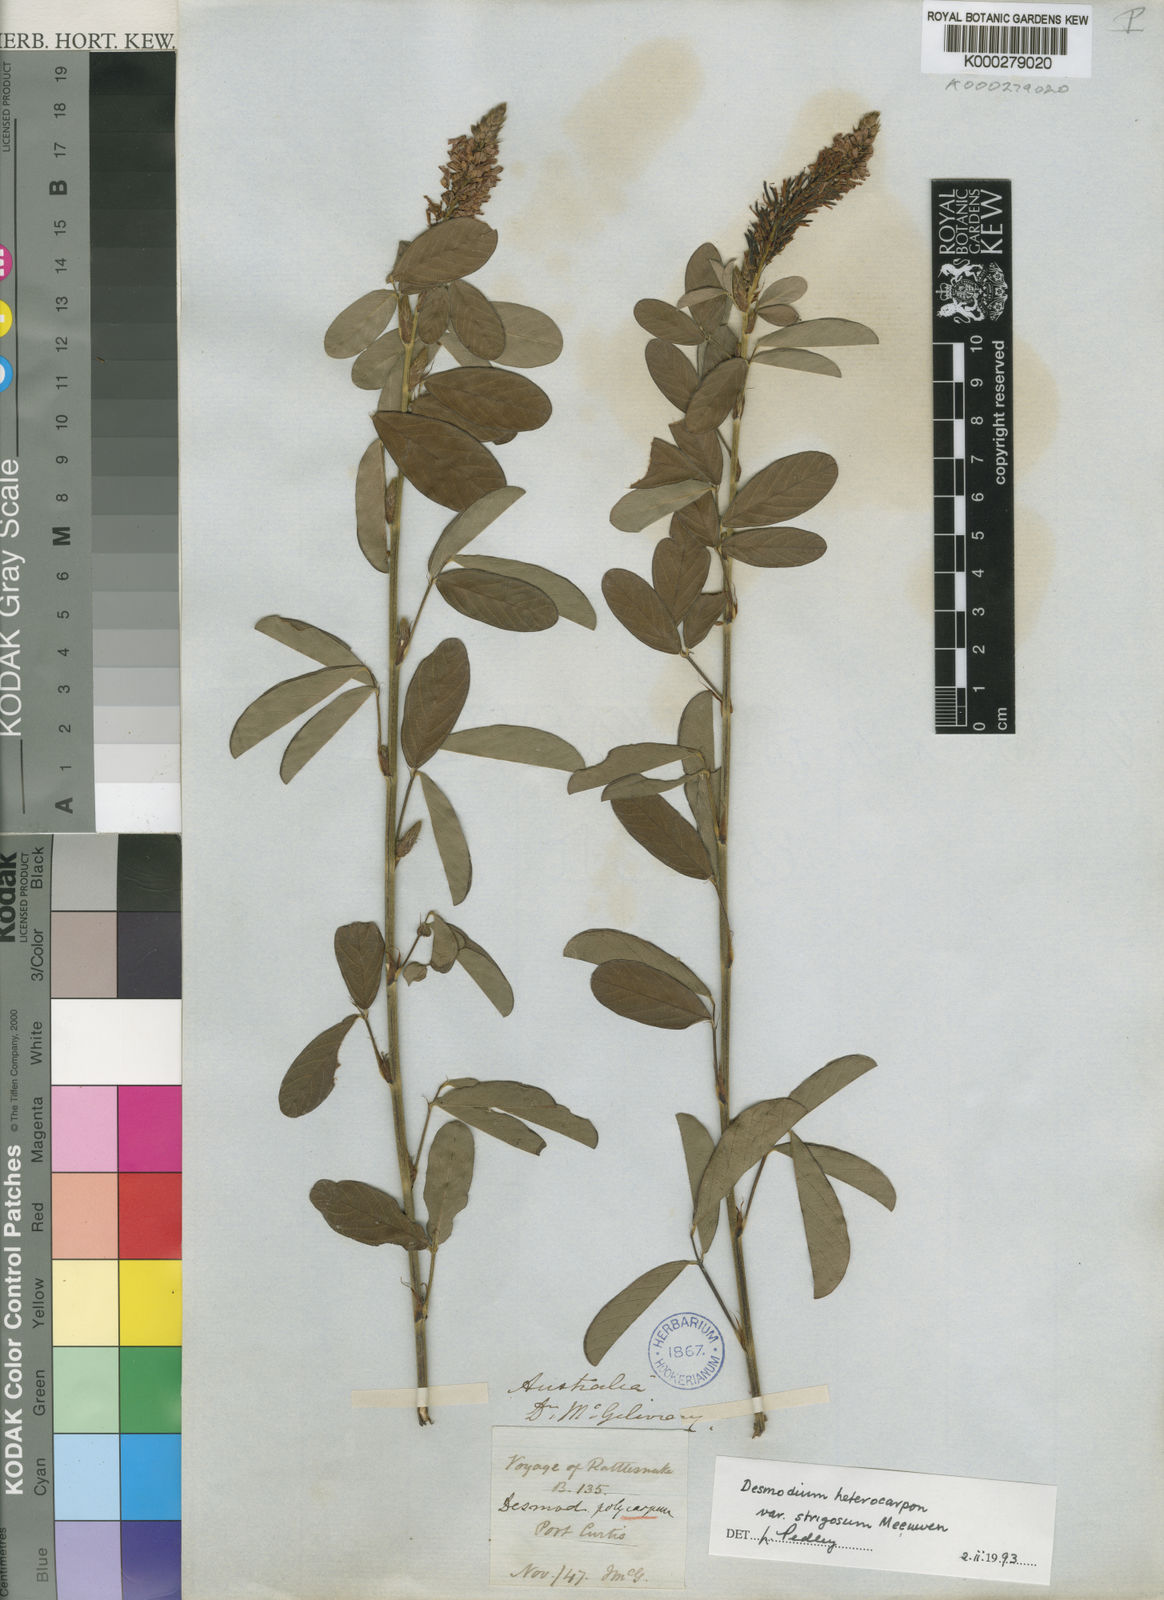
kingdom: Plantae
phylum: Tracheophyta
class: Magnoliopsida
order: Fabales
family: Fabaceae
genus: Grona
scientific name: Grona heterocarpos
